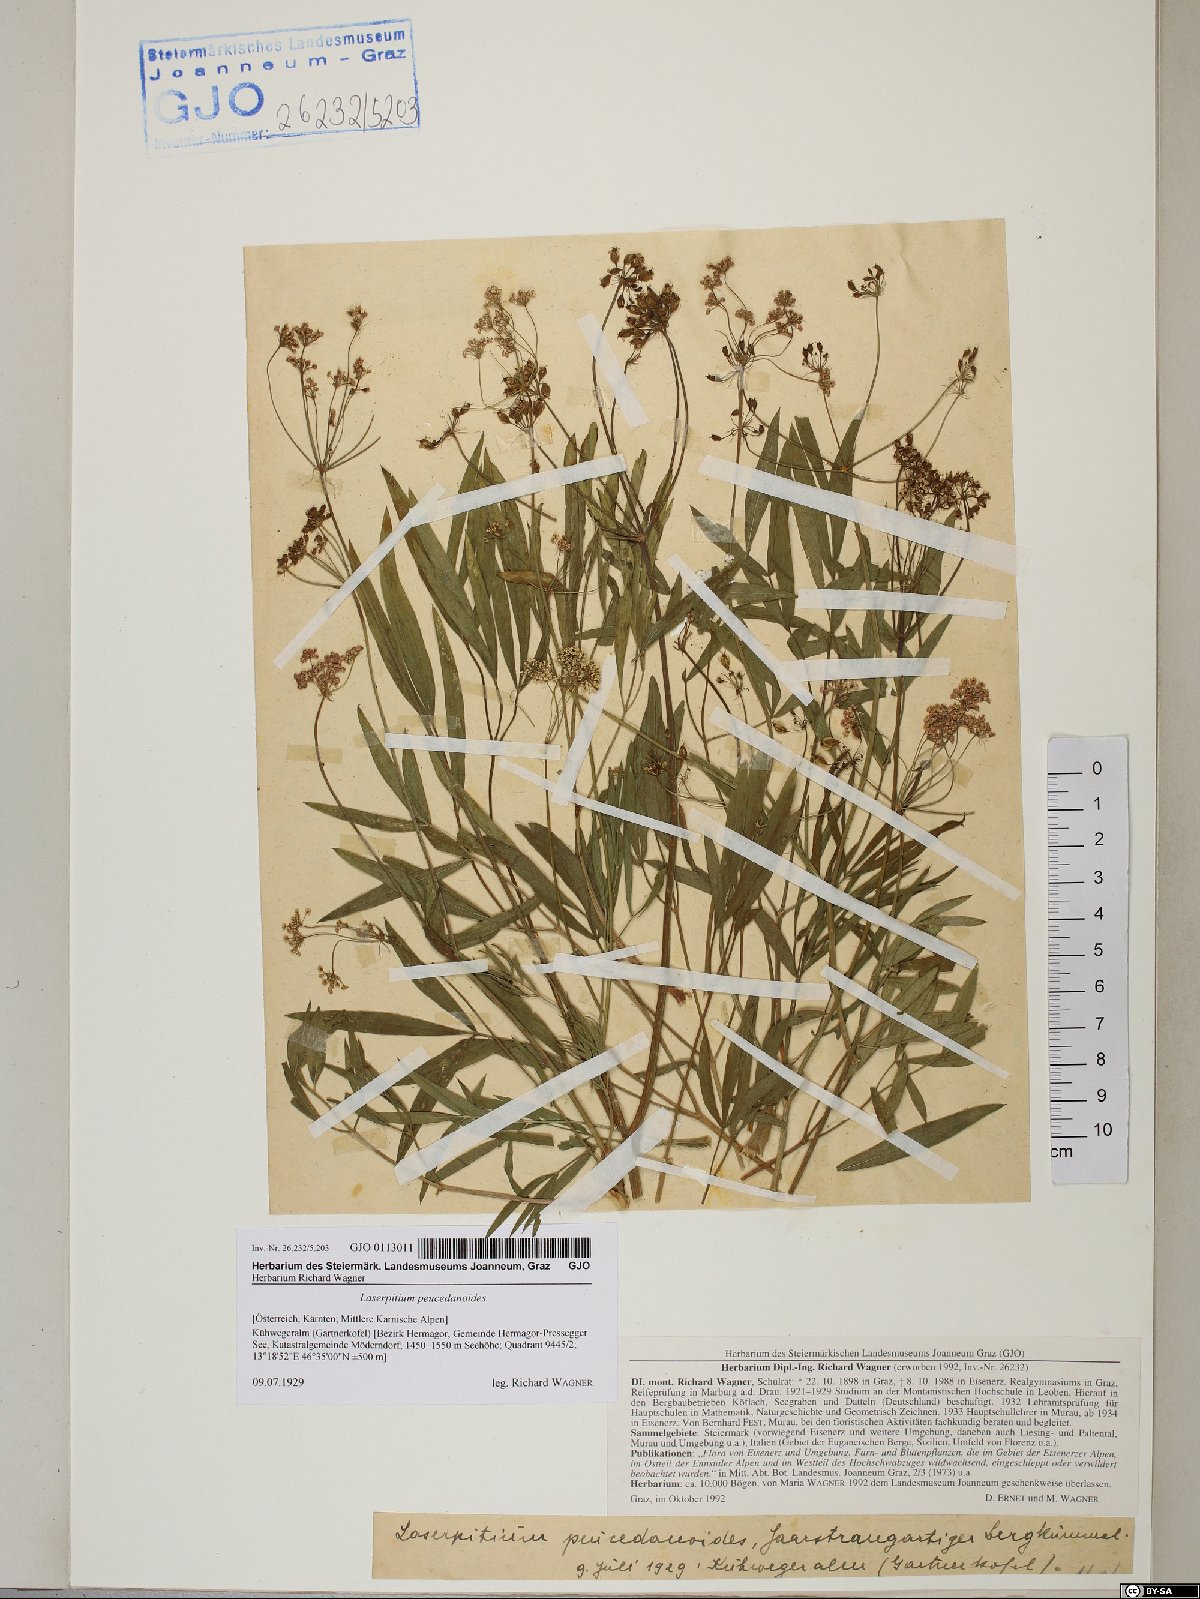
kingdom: Plantae
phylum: Tracheophyta
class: Magnoliopsida
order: Apiales
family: Apiaceae
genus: Laserpitium
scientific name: Laserpitium peucedanoides
